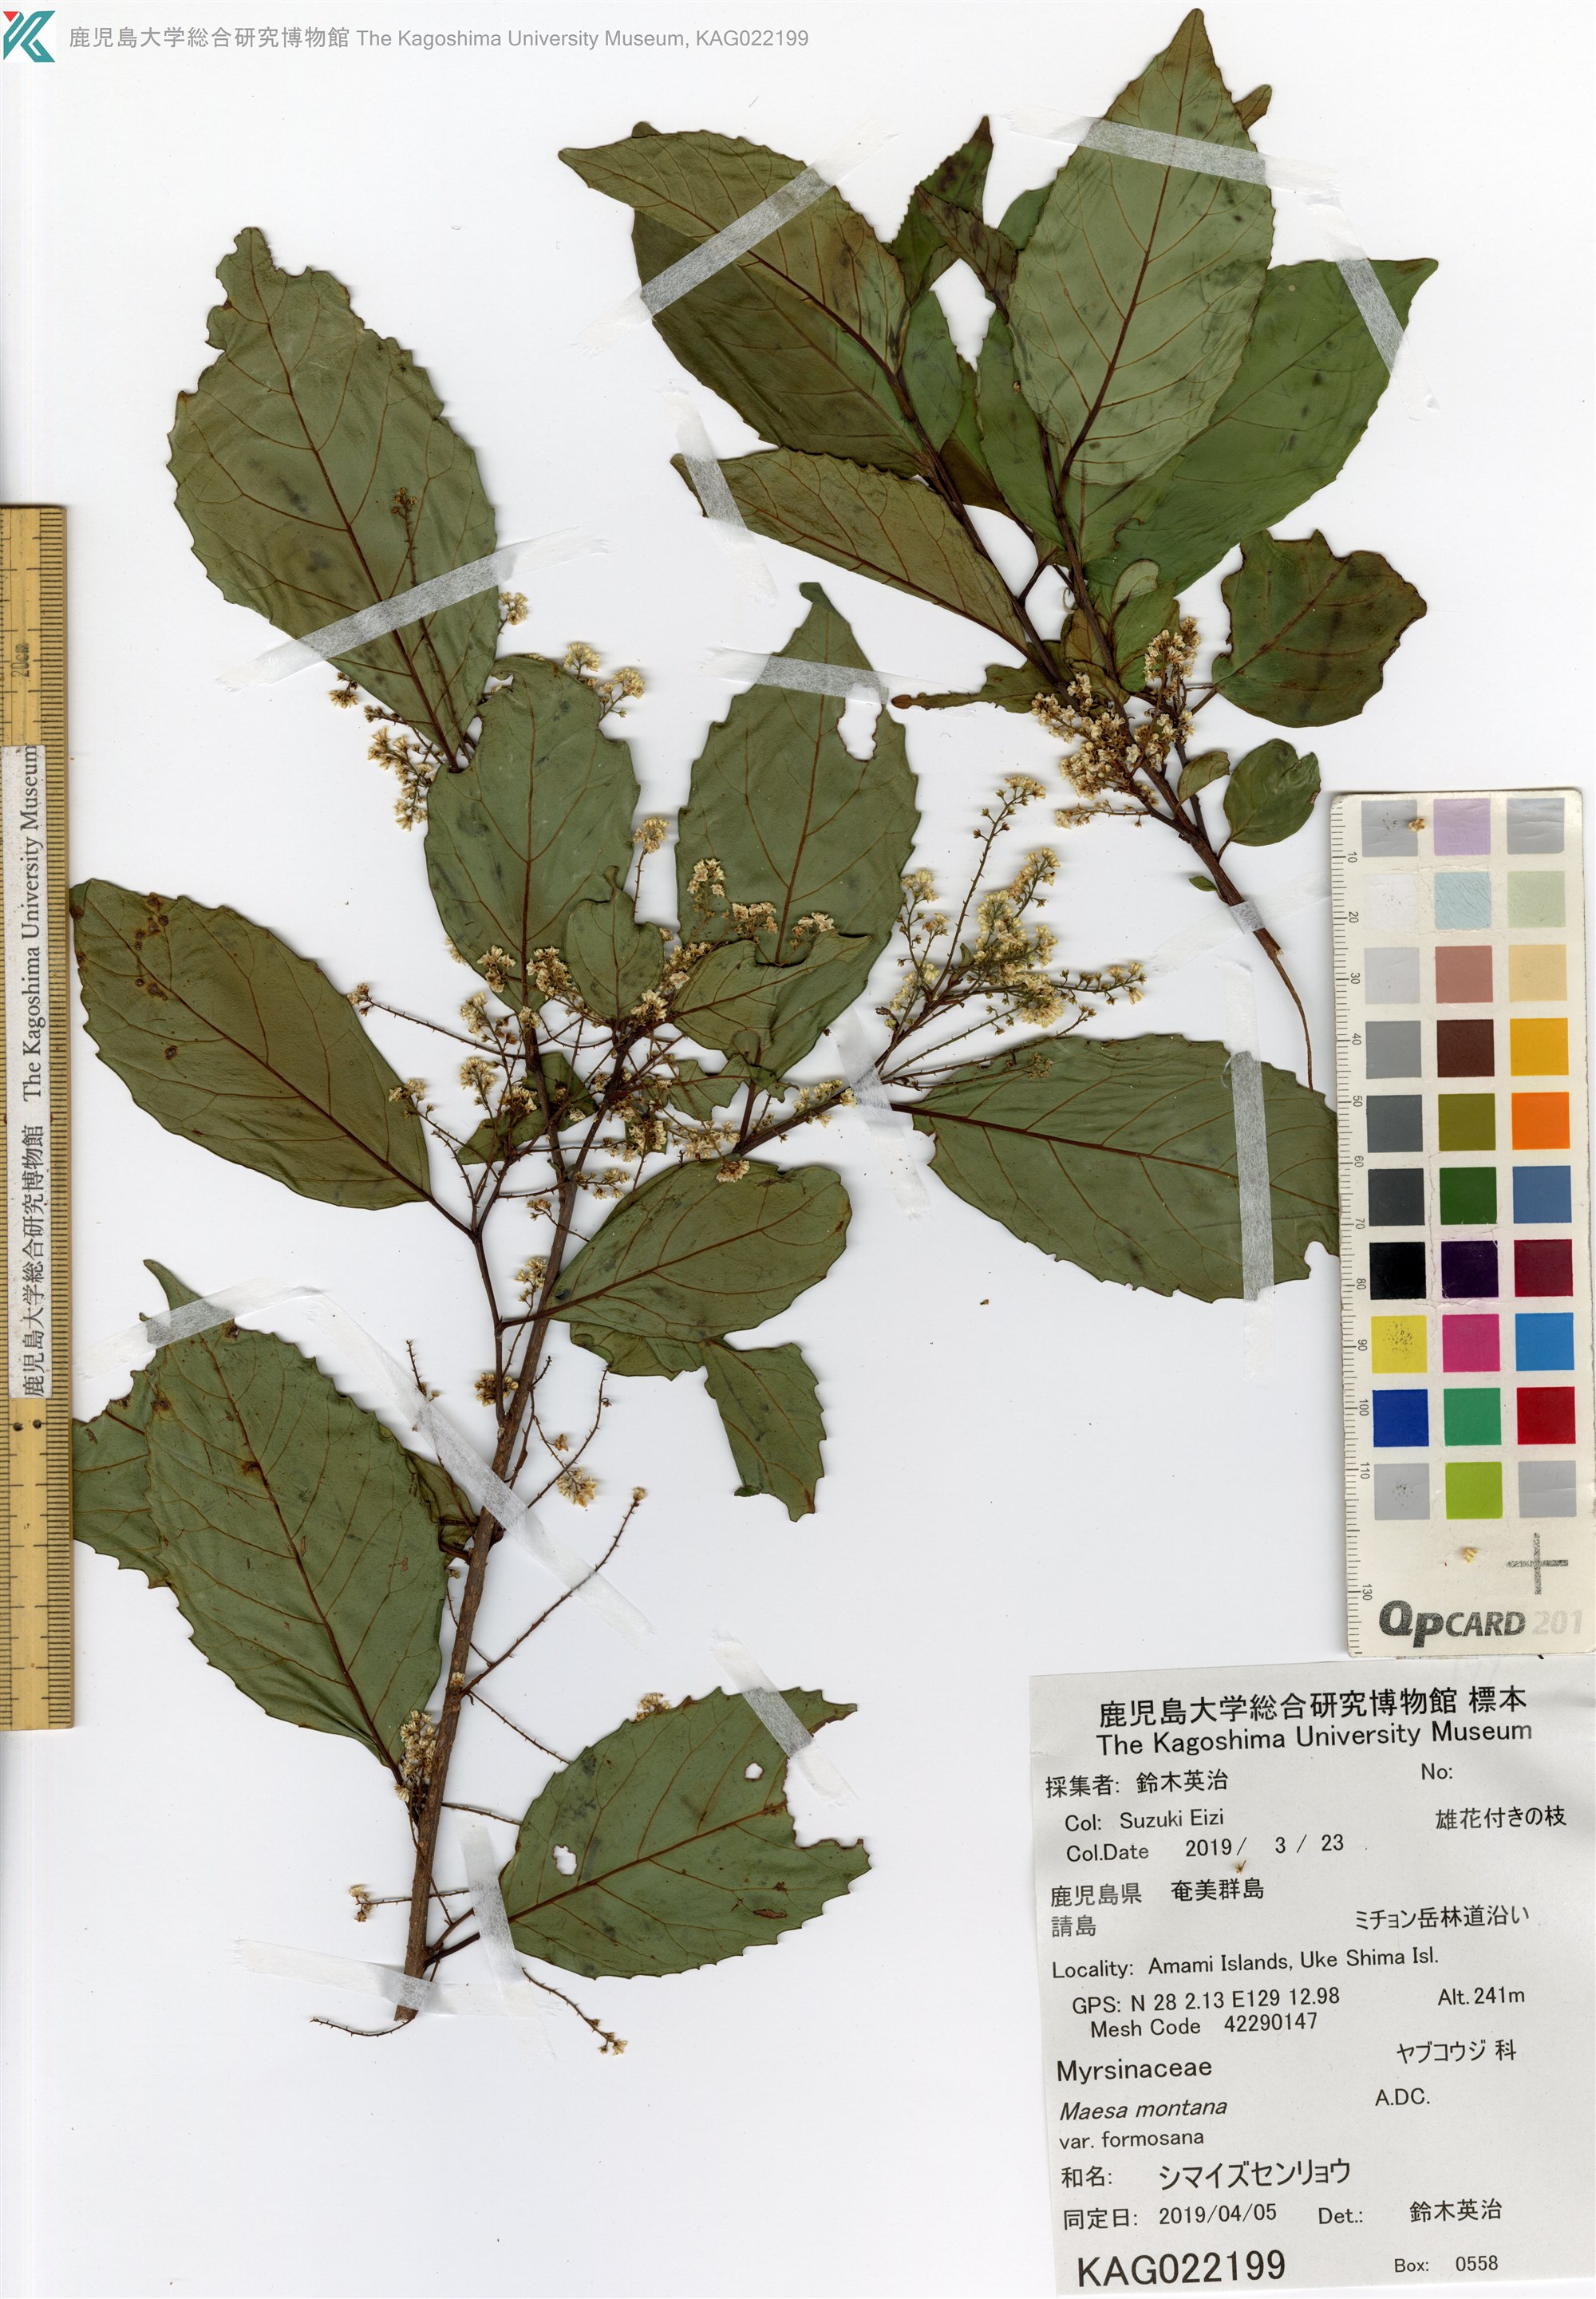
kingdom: Plantae
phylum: Tracheophyta
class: Magnoliopsida
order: Ericales
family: Primulaceae
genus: Maesa
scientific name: Maesa perlaria
